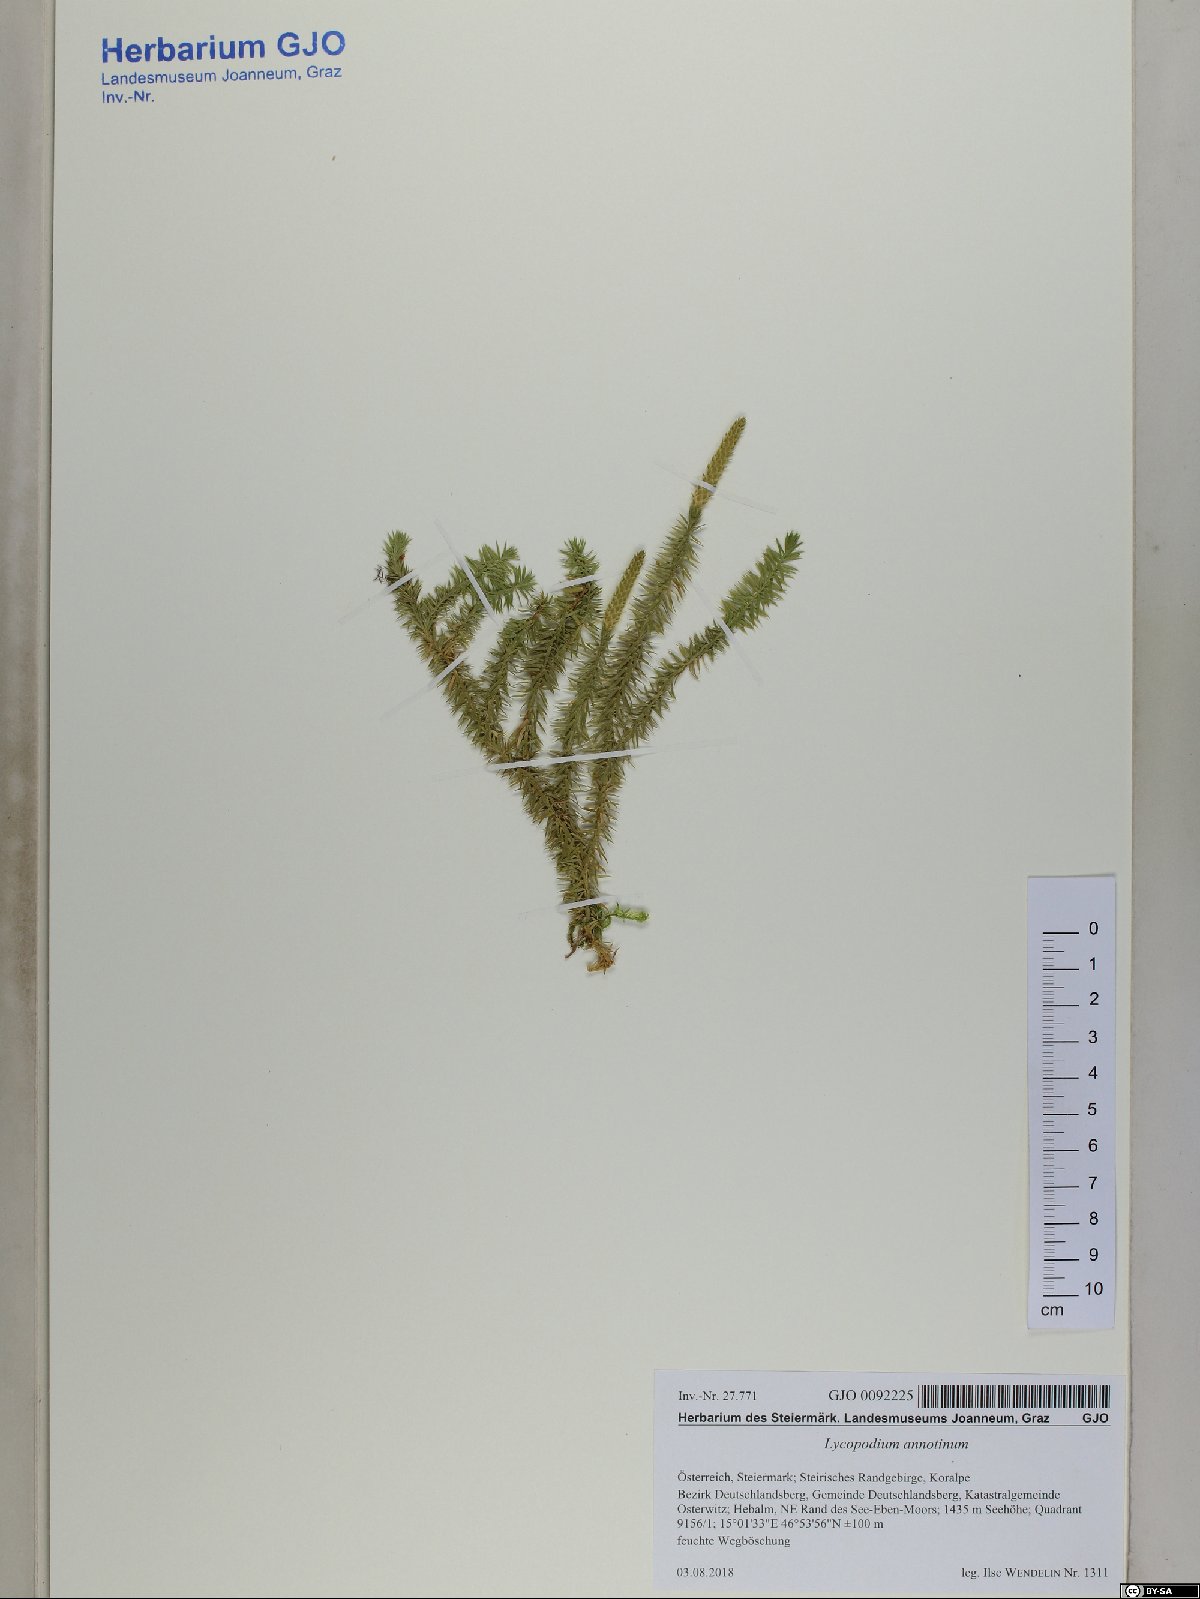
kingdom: Plantae
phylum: Tracheophyta
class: Lycopodiopsida
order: Lycopodiales
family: Lycopodiaceae
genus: Spinulum
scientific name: Spinulum annotinum
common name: Interrupted club-moss
